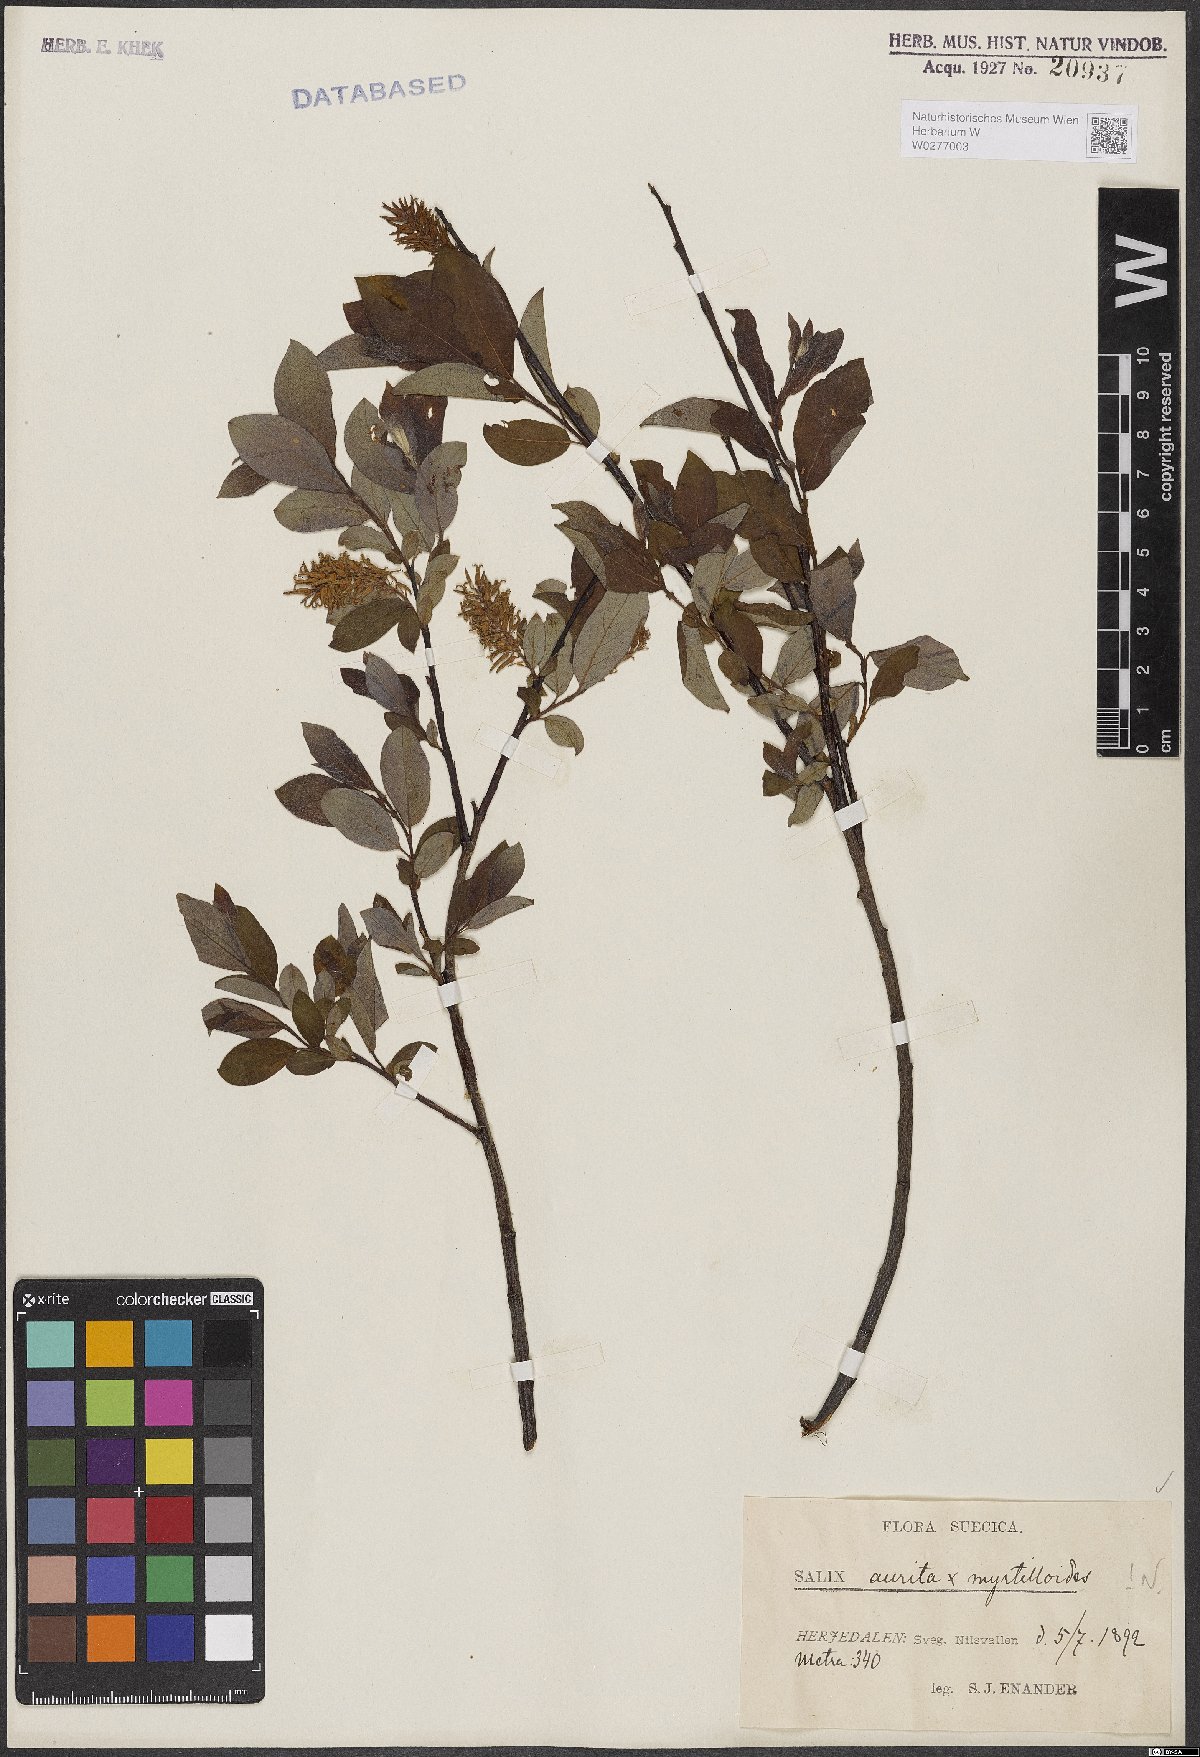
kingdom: Plantae
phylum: Tracheophyta
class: Magnoliopsida
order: Malpighiales
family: Salicaceae
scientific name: Salicaceae
